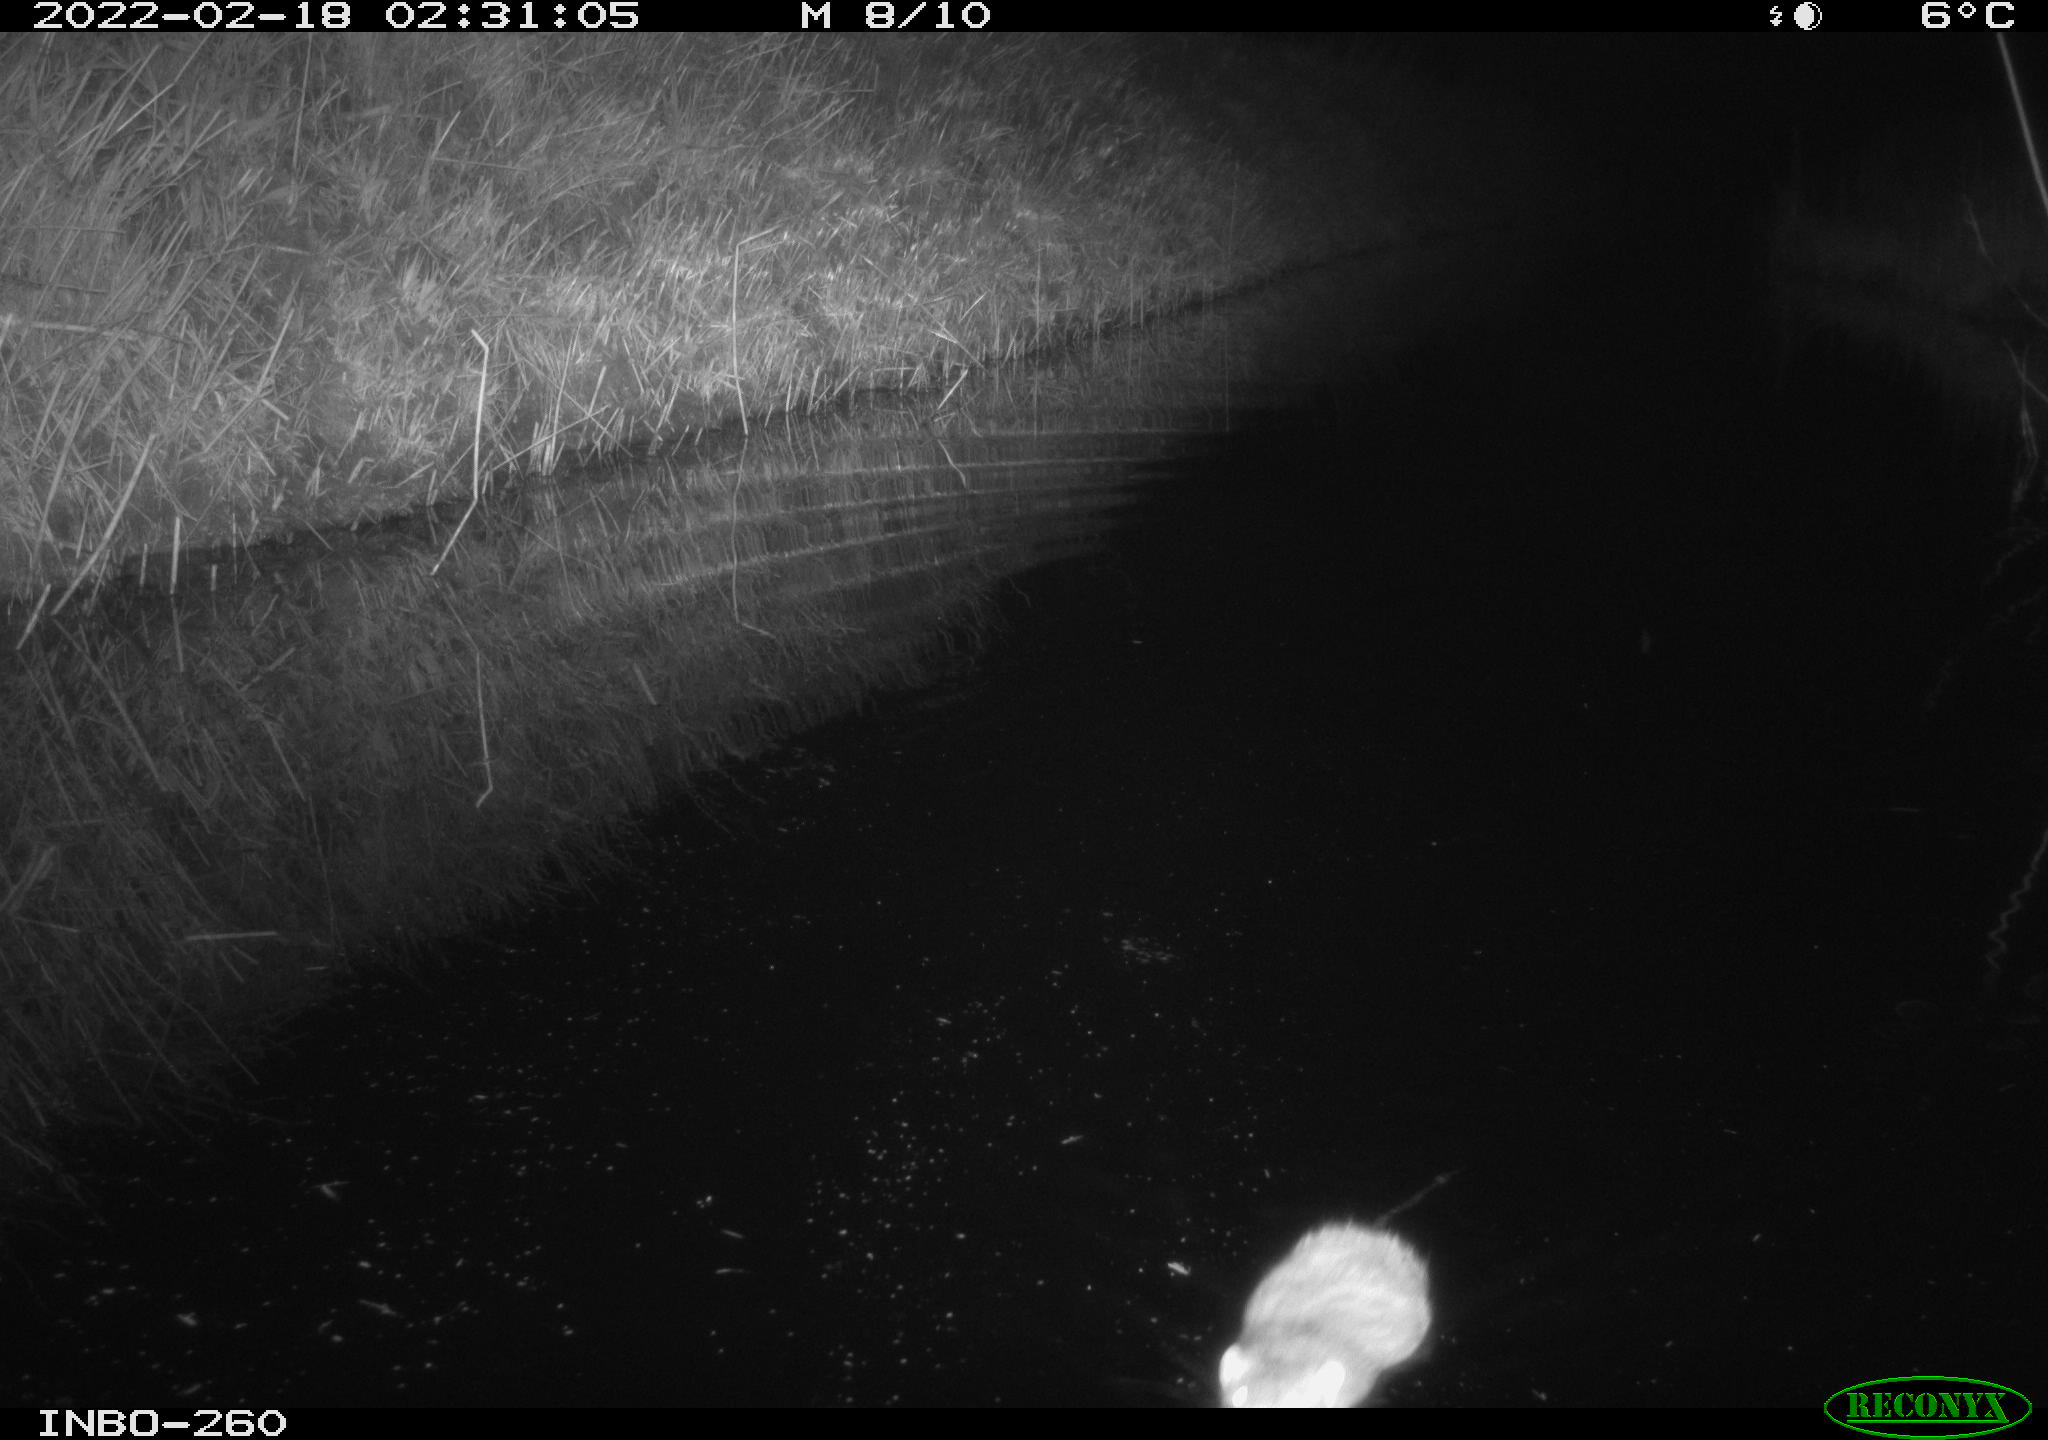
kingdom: Animalia
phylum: Chordata
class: Mammalia
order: Rodentia
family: Muridae
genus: Rattus
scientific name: Rattus norvegicus
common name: Brown rat
